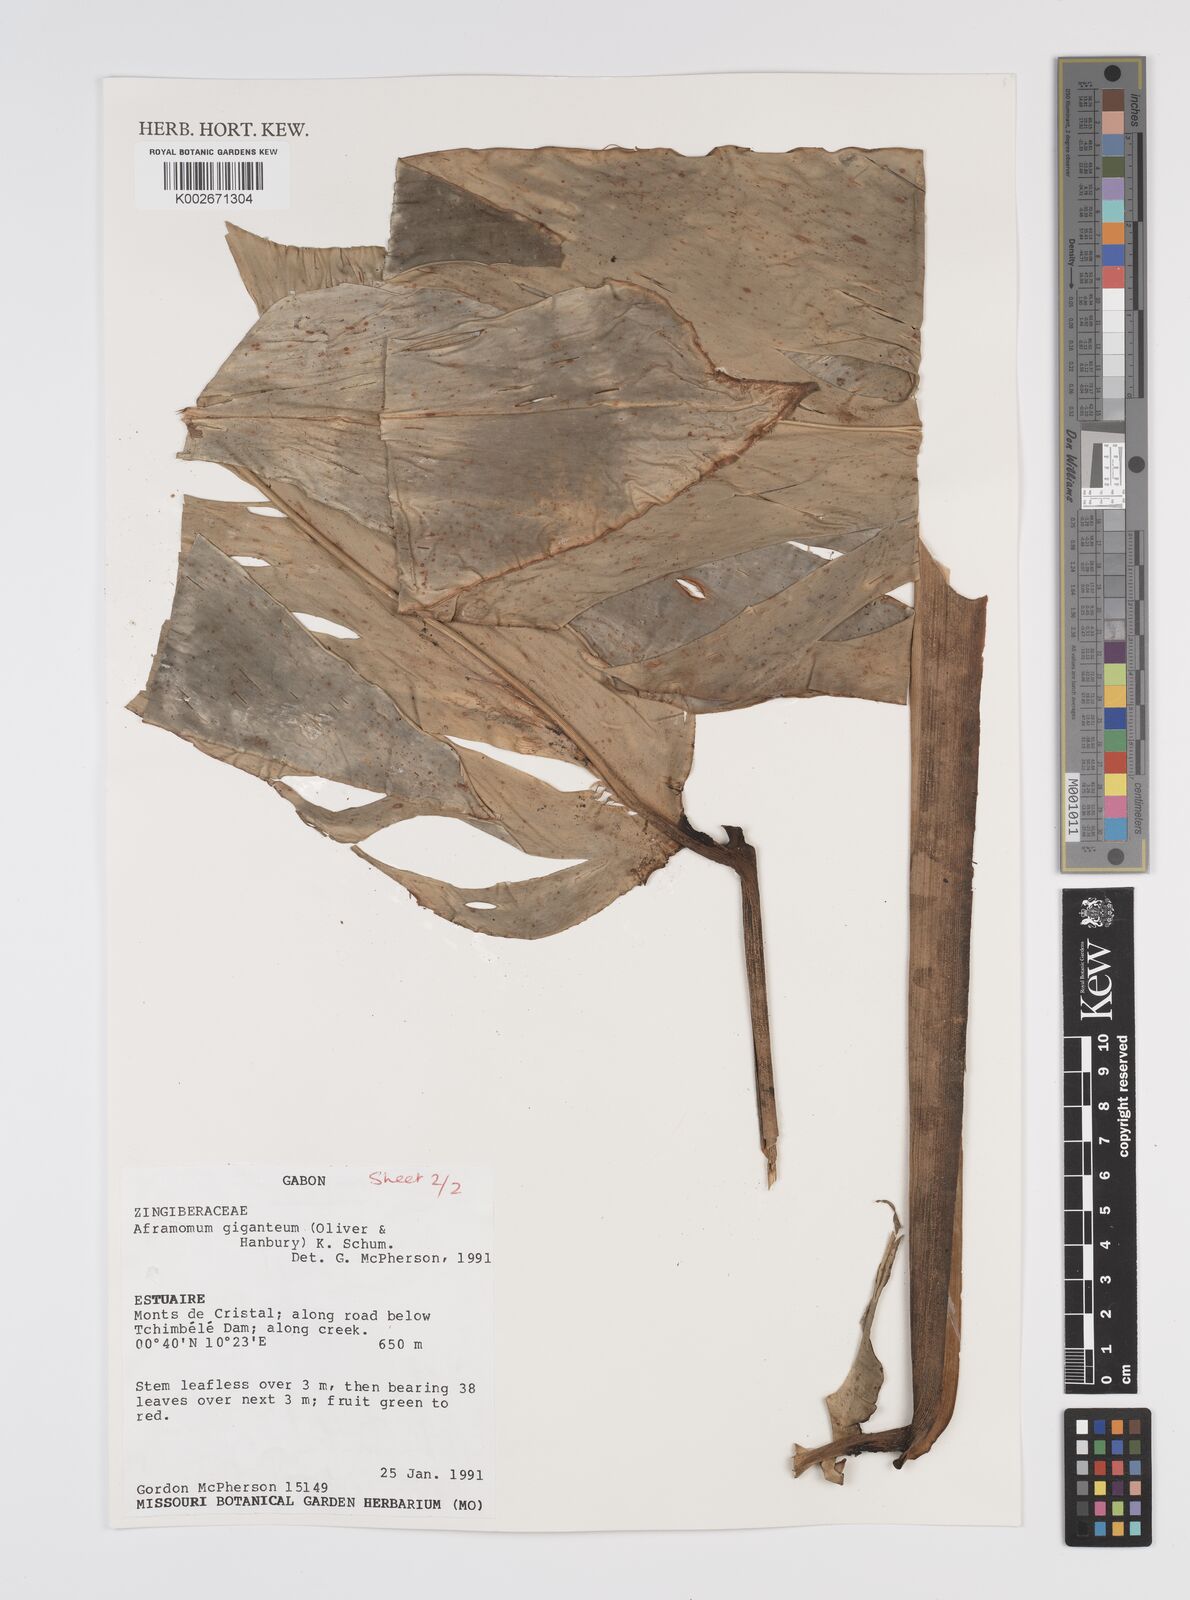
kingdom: Plantae
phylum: Tracheophyta
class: Liliopsida
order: Zingiberales
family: Zingiberaceae
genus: Aframomum
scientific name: Aframomum giganteum
